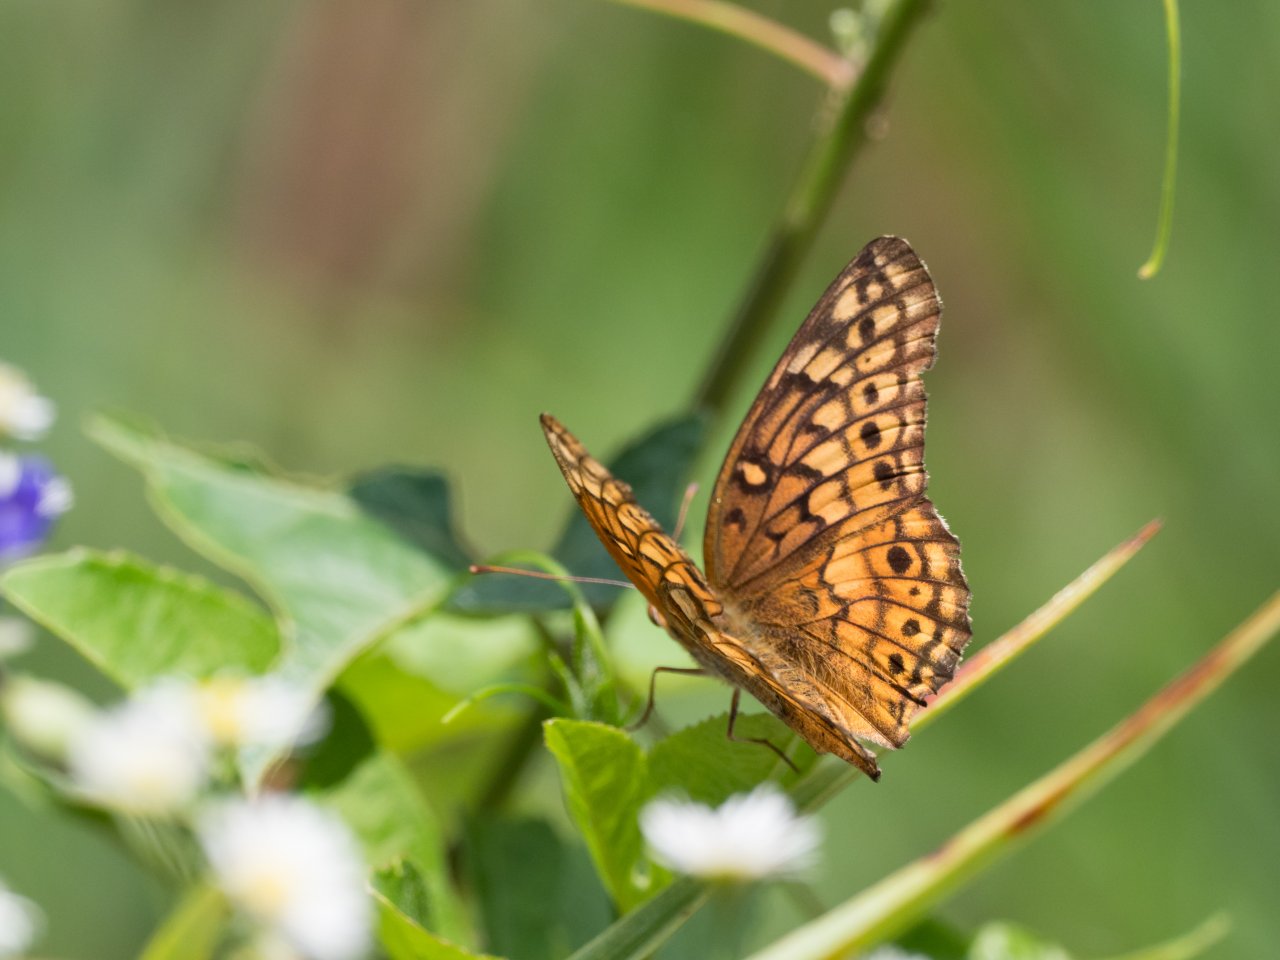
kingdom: Animalia
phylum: Arthropoda
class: Insecta
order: Lepidoptera
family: Nymphalidae
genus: Euptoieta
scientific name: Euptoieta claudia
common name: Variegated Fritillary
